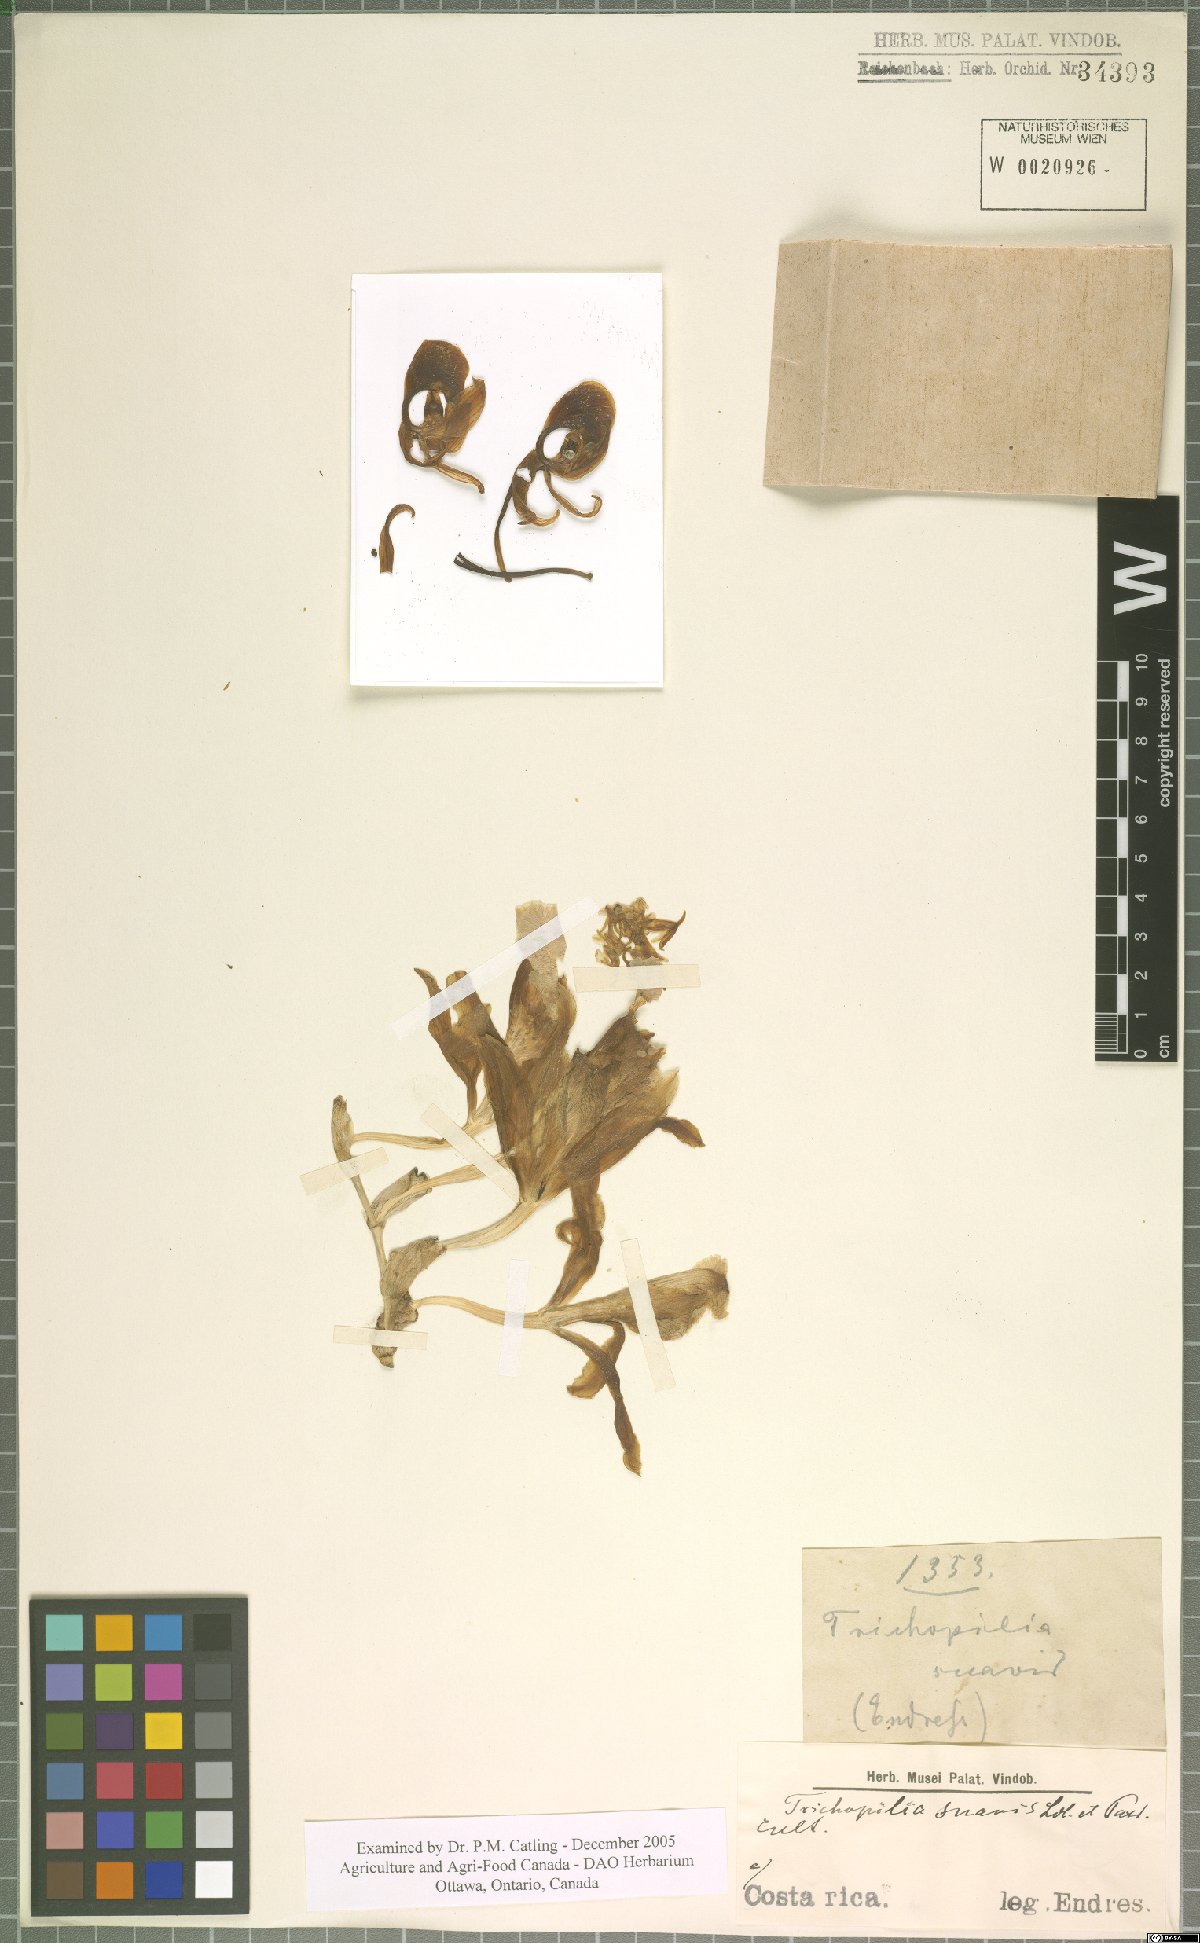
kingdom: Plantae
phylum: Tracheophyta
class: Liliopsida
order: Asparagales
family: Orchidaceae
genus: Trichopilia
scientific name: Trichopilia suavis
